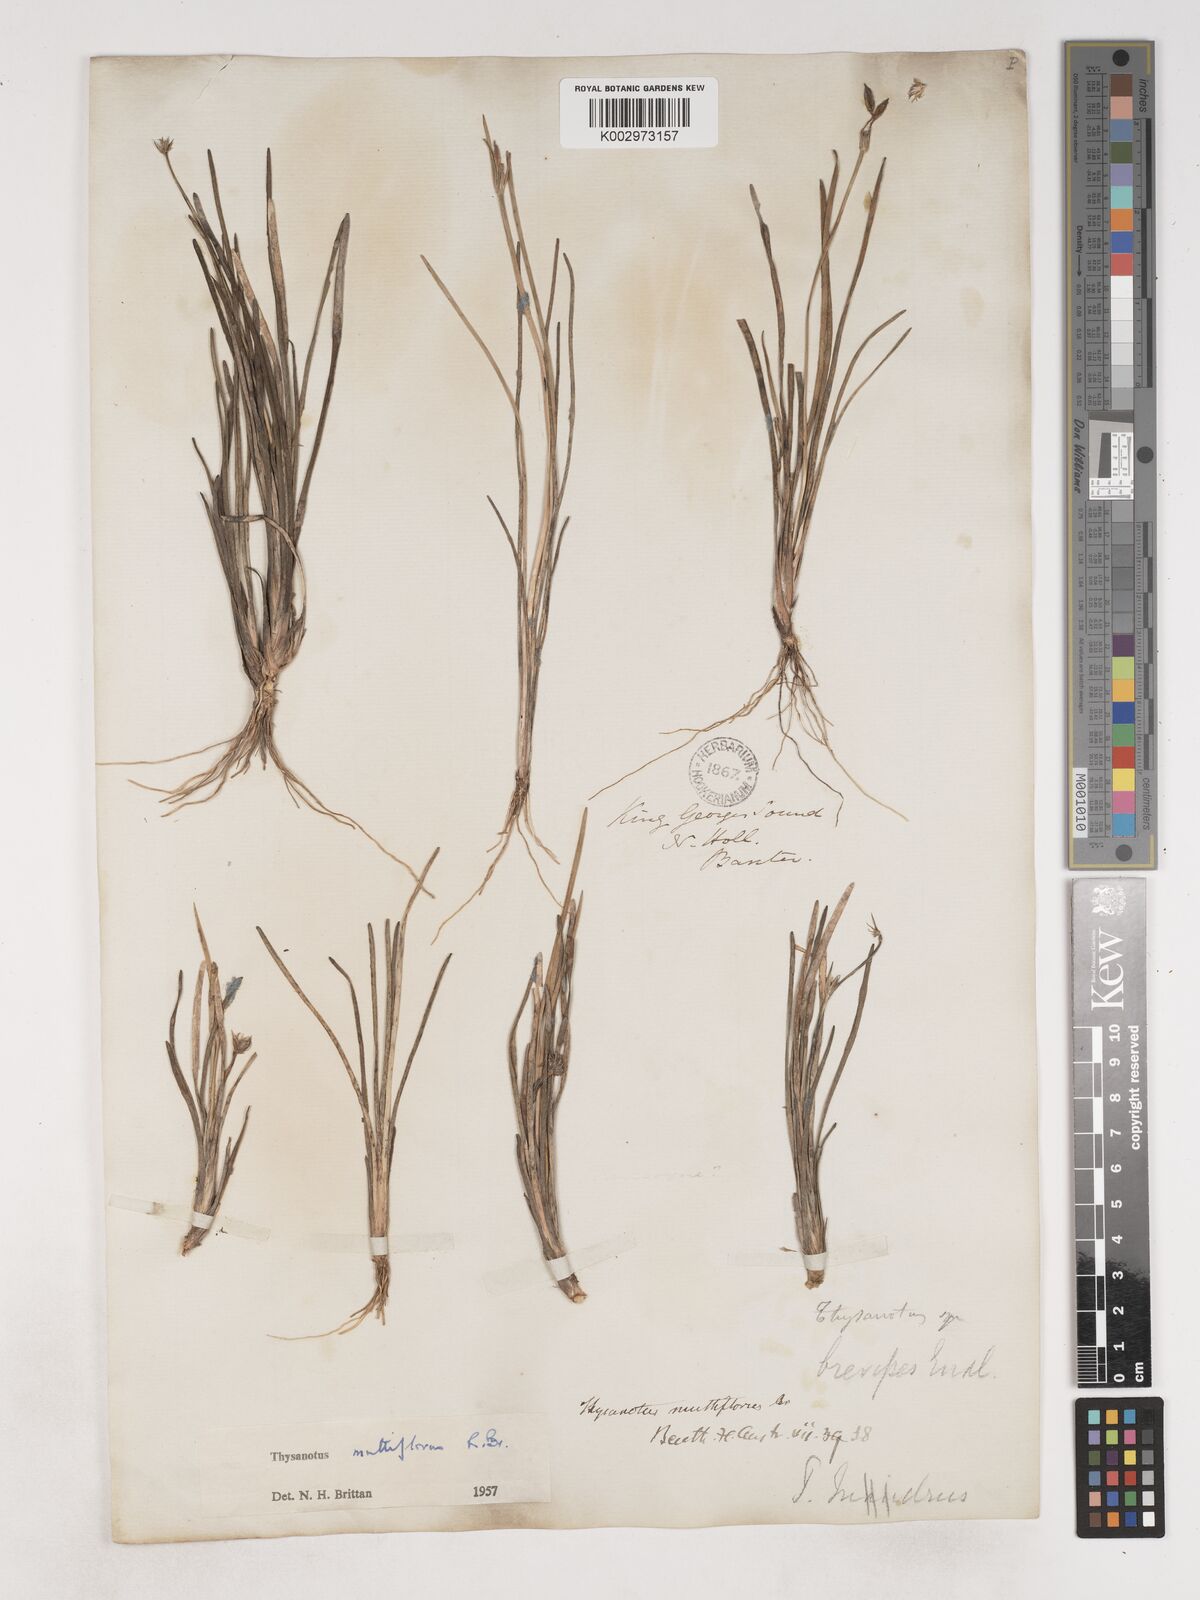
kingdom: Plantae
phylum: Tracheophyta
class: Liliopsida
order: Asparagales
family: Asparagaceae
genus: Thysanotus
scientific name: Thysanotus multiflorus
